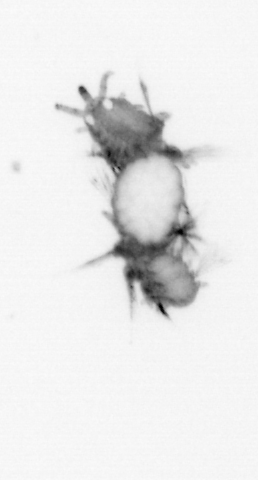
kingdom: Animalia
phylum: Annelida
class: Polychaeta
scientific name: Polychaeta
